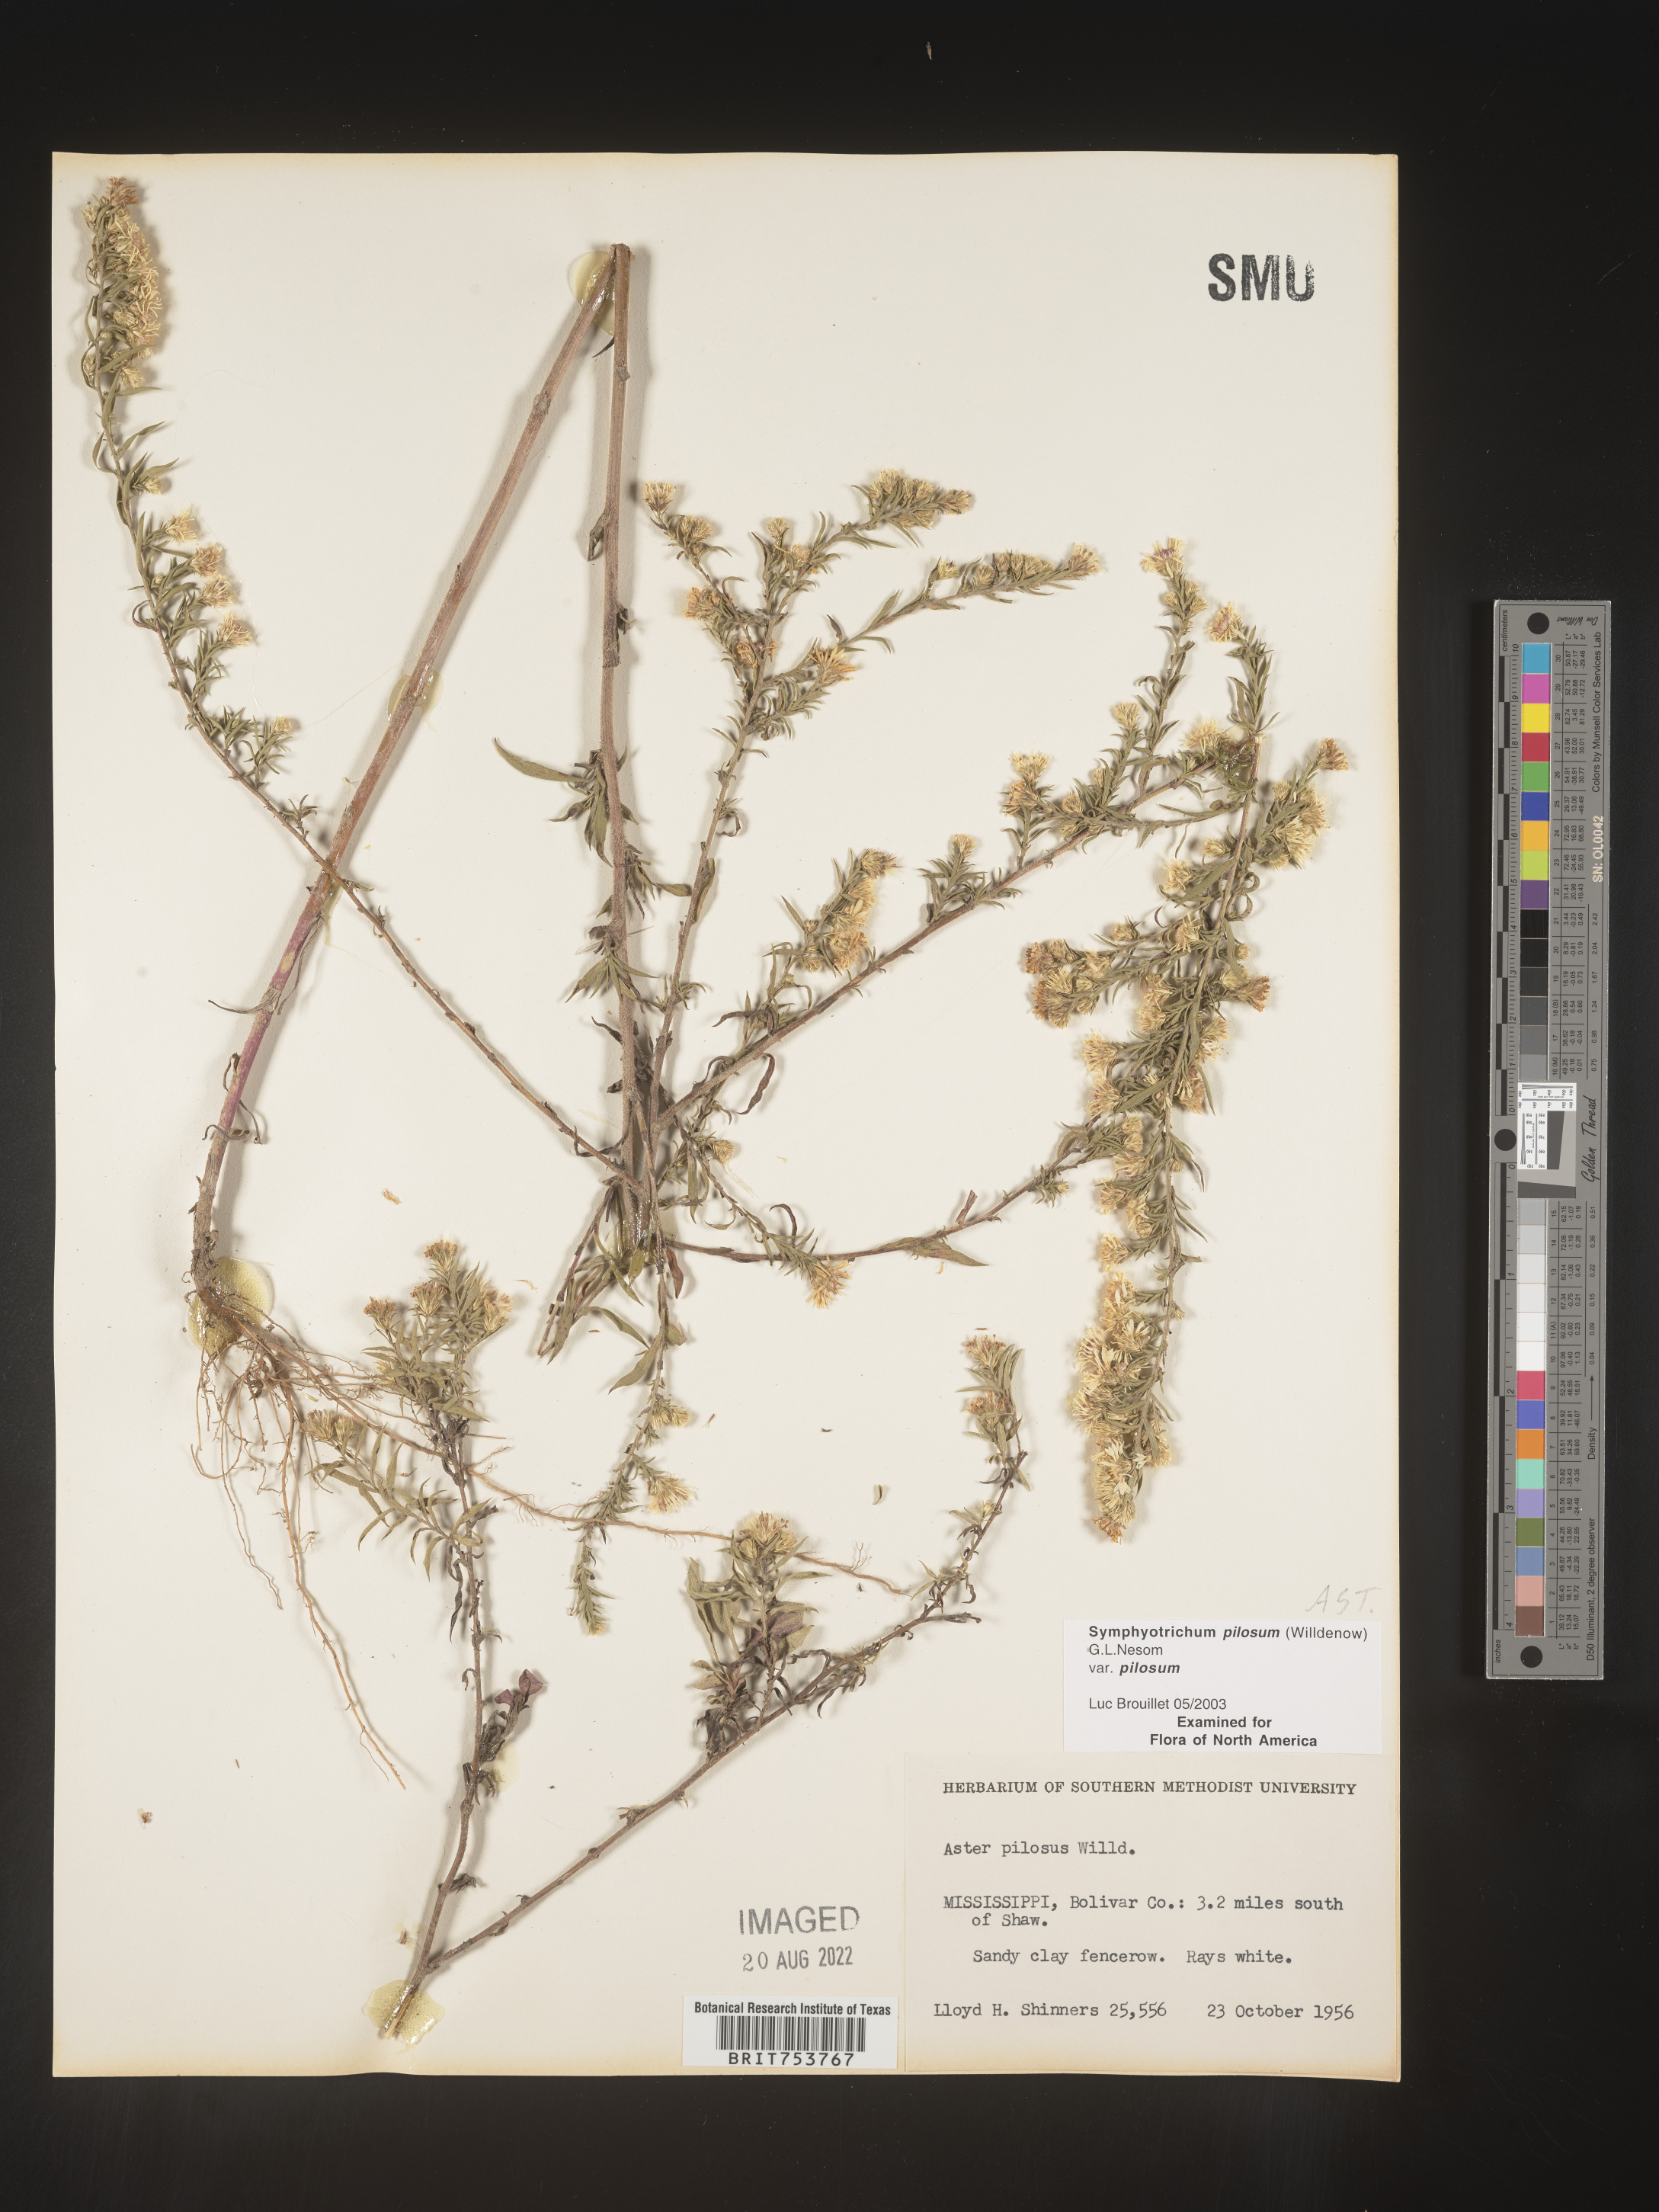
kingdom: Plantae
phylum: Tracheophyta
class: Magnoliopsida
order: Asterales
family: Asteraceae
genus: Symphyotrichum
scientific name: Symphyotrichum pilosum
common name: Awl aster
